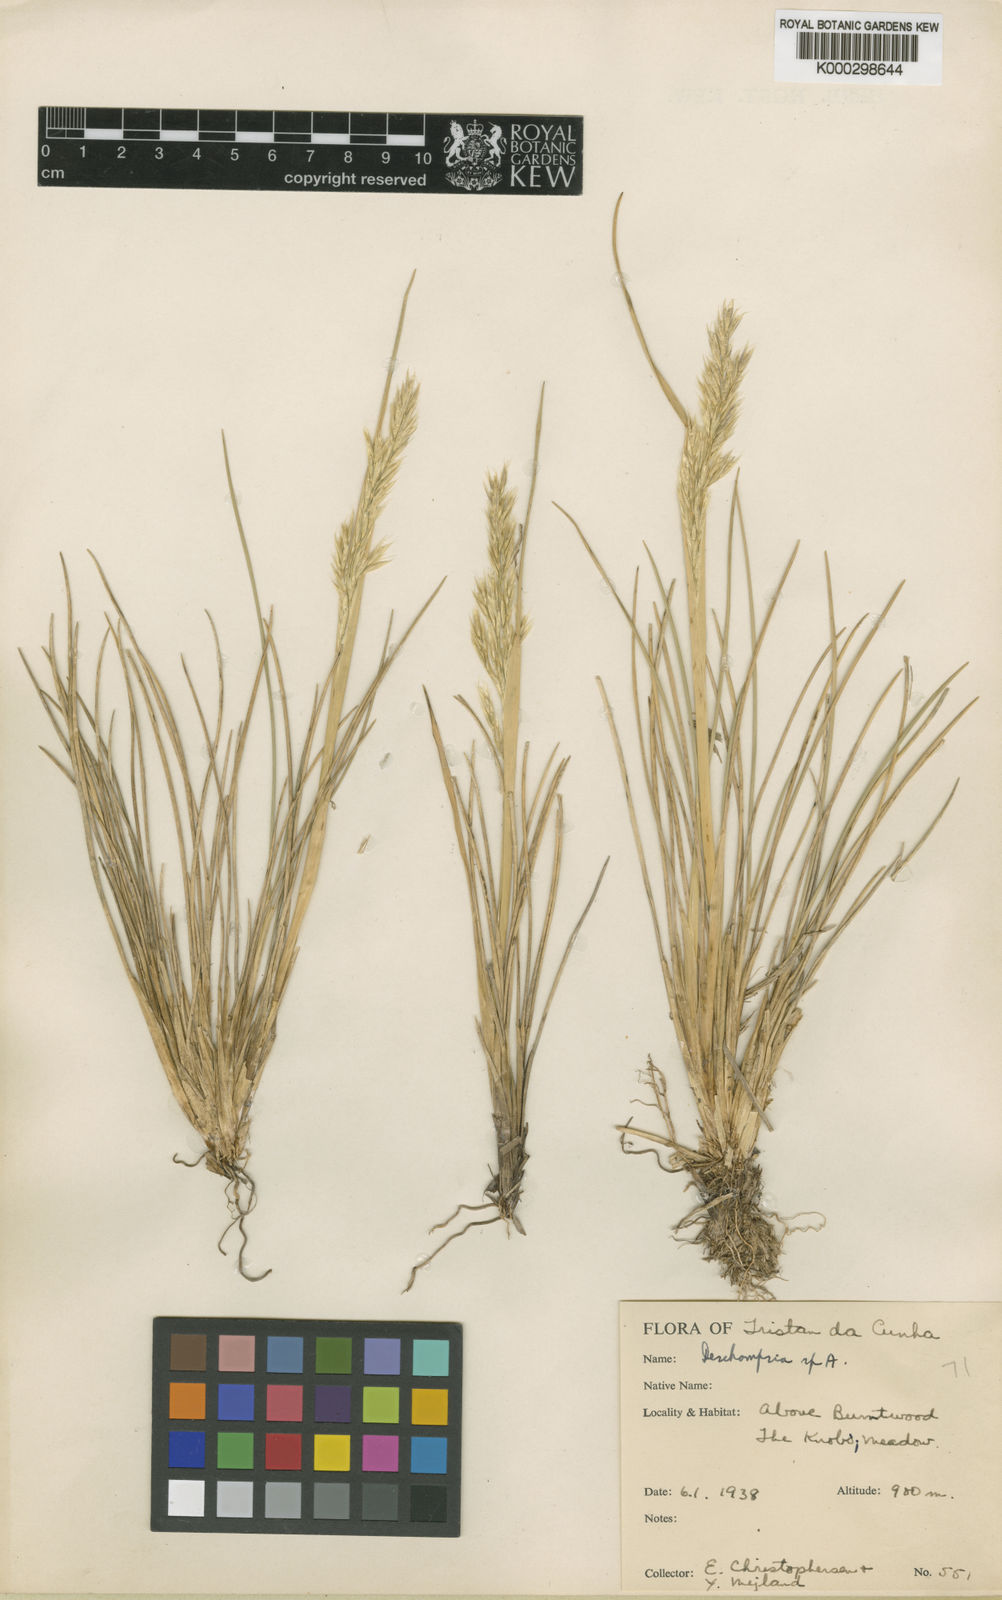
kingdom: Plantae
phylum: Tracheophyta
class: Liliopsida
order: Poales
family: Poaceae
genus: Deschampsia
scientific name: Deschampsia
